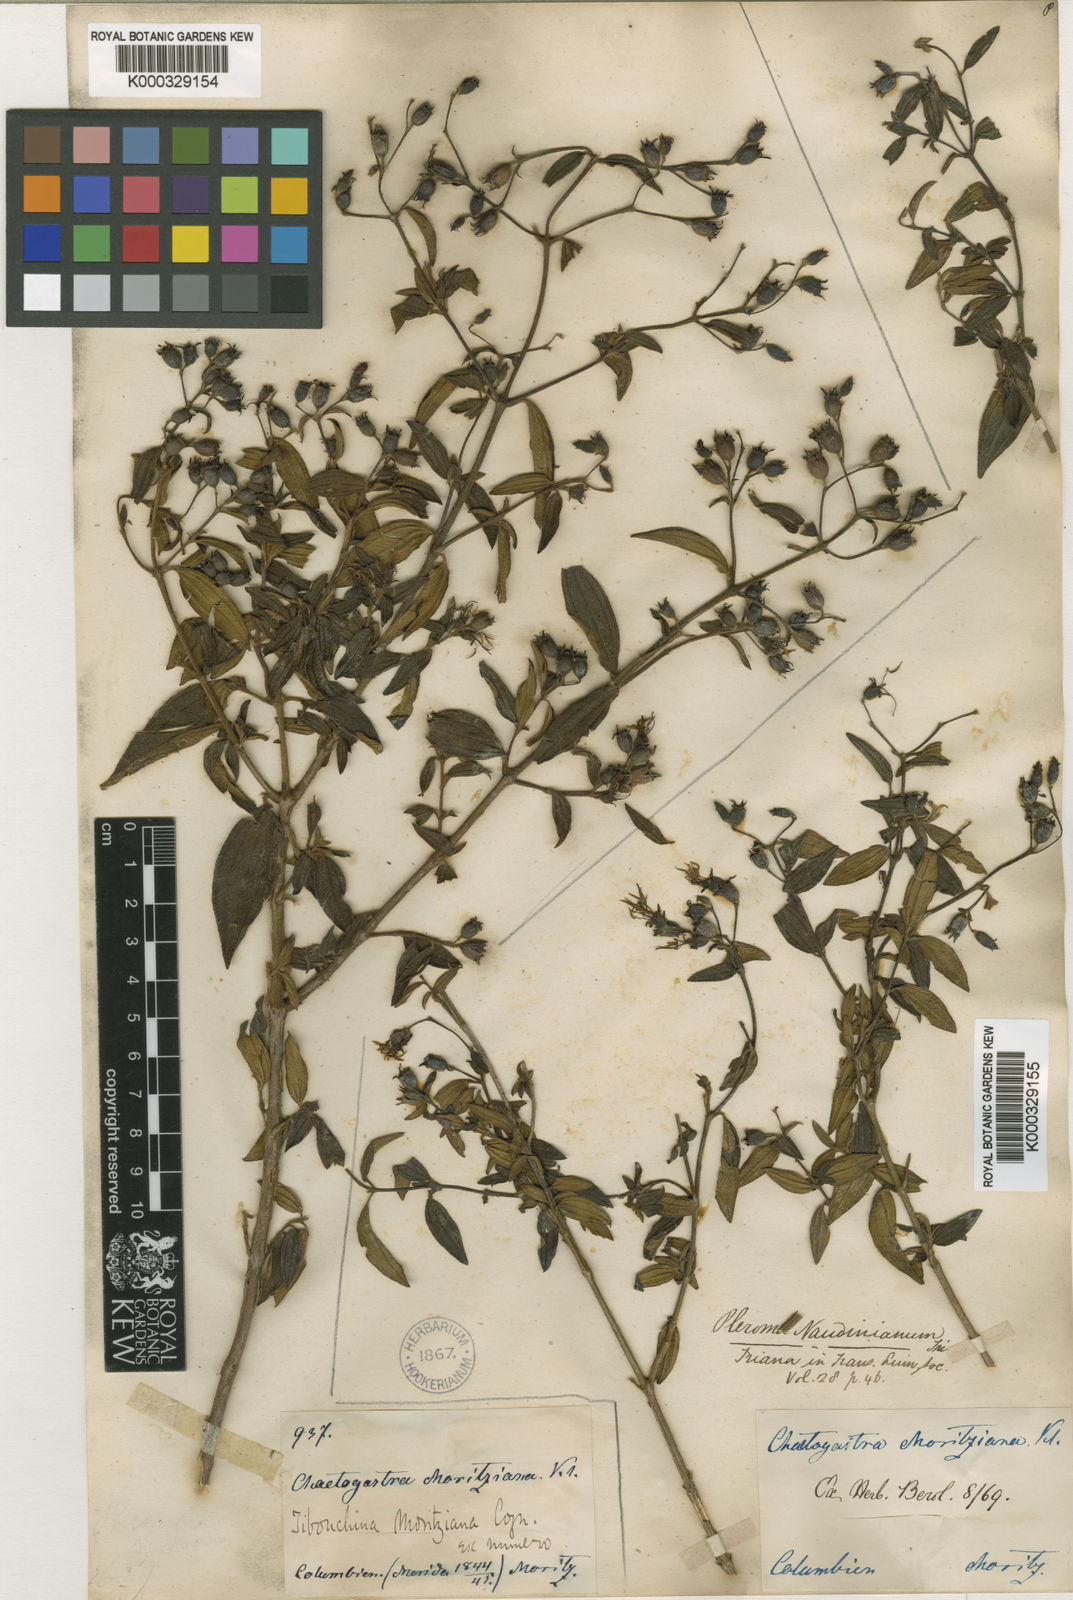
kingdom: Plantae
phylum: Tracheophyta
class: Magnoliopsida
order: Myrtales
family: Melastomataceae
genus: Chaetogastra
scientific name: Chaetogastra geitneriana
